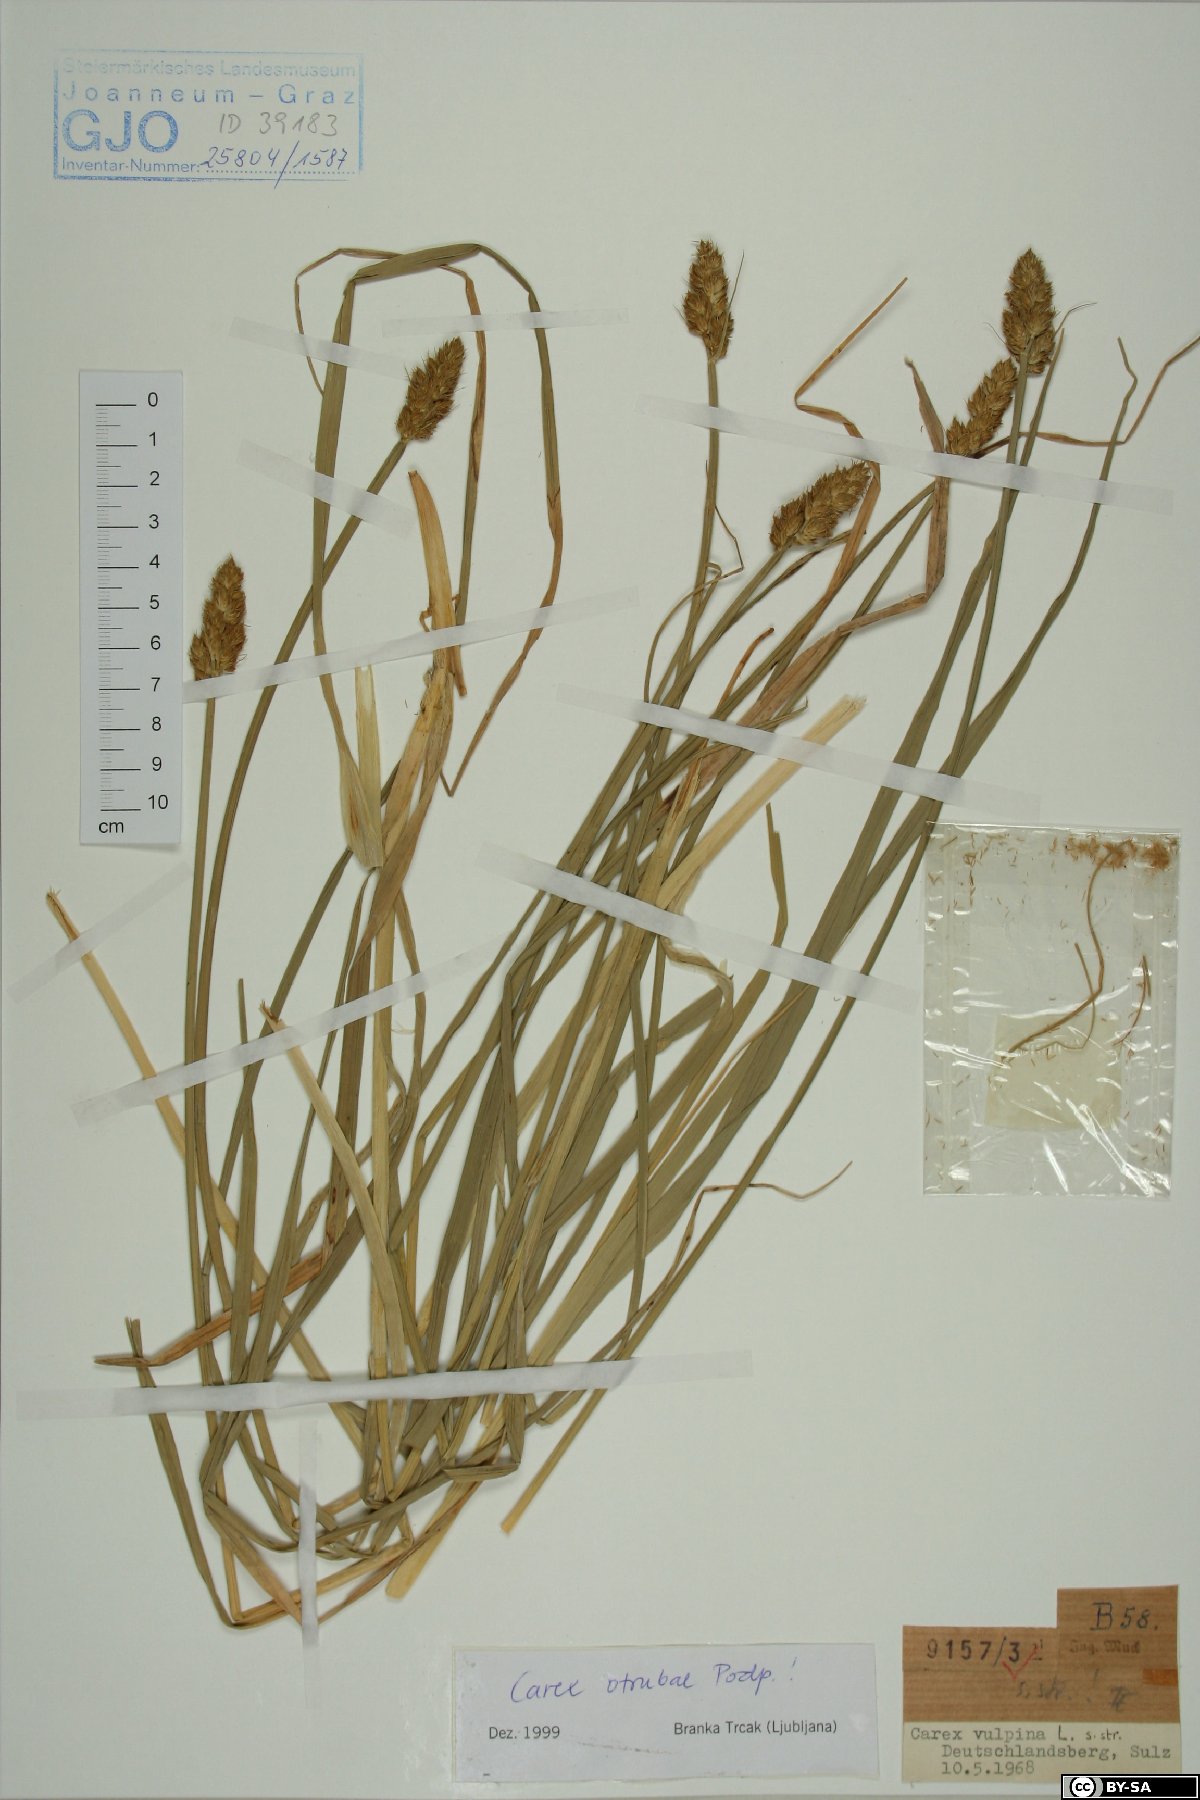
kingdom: Plantae
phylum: Tracheophyta
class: Liliopsida
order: Poales
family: Cyperaceae
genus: Carex
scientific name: Carex otrubae
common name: False fox-sedge
